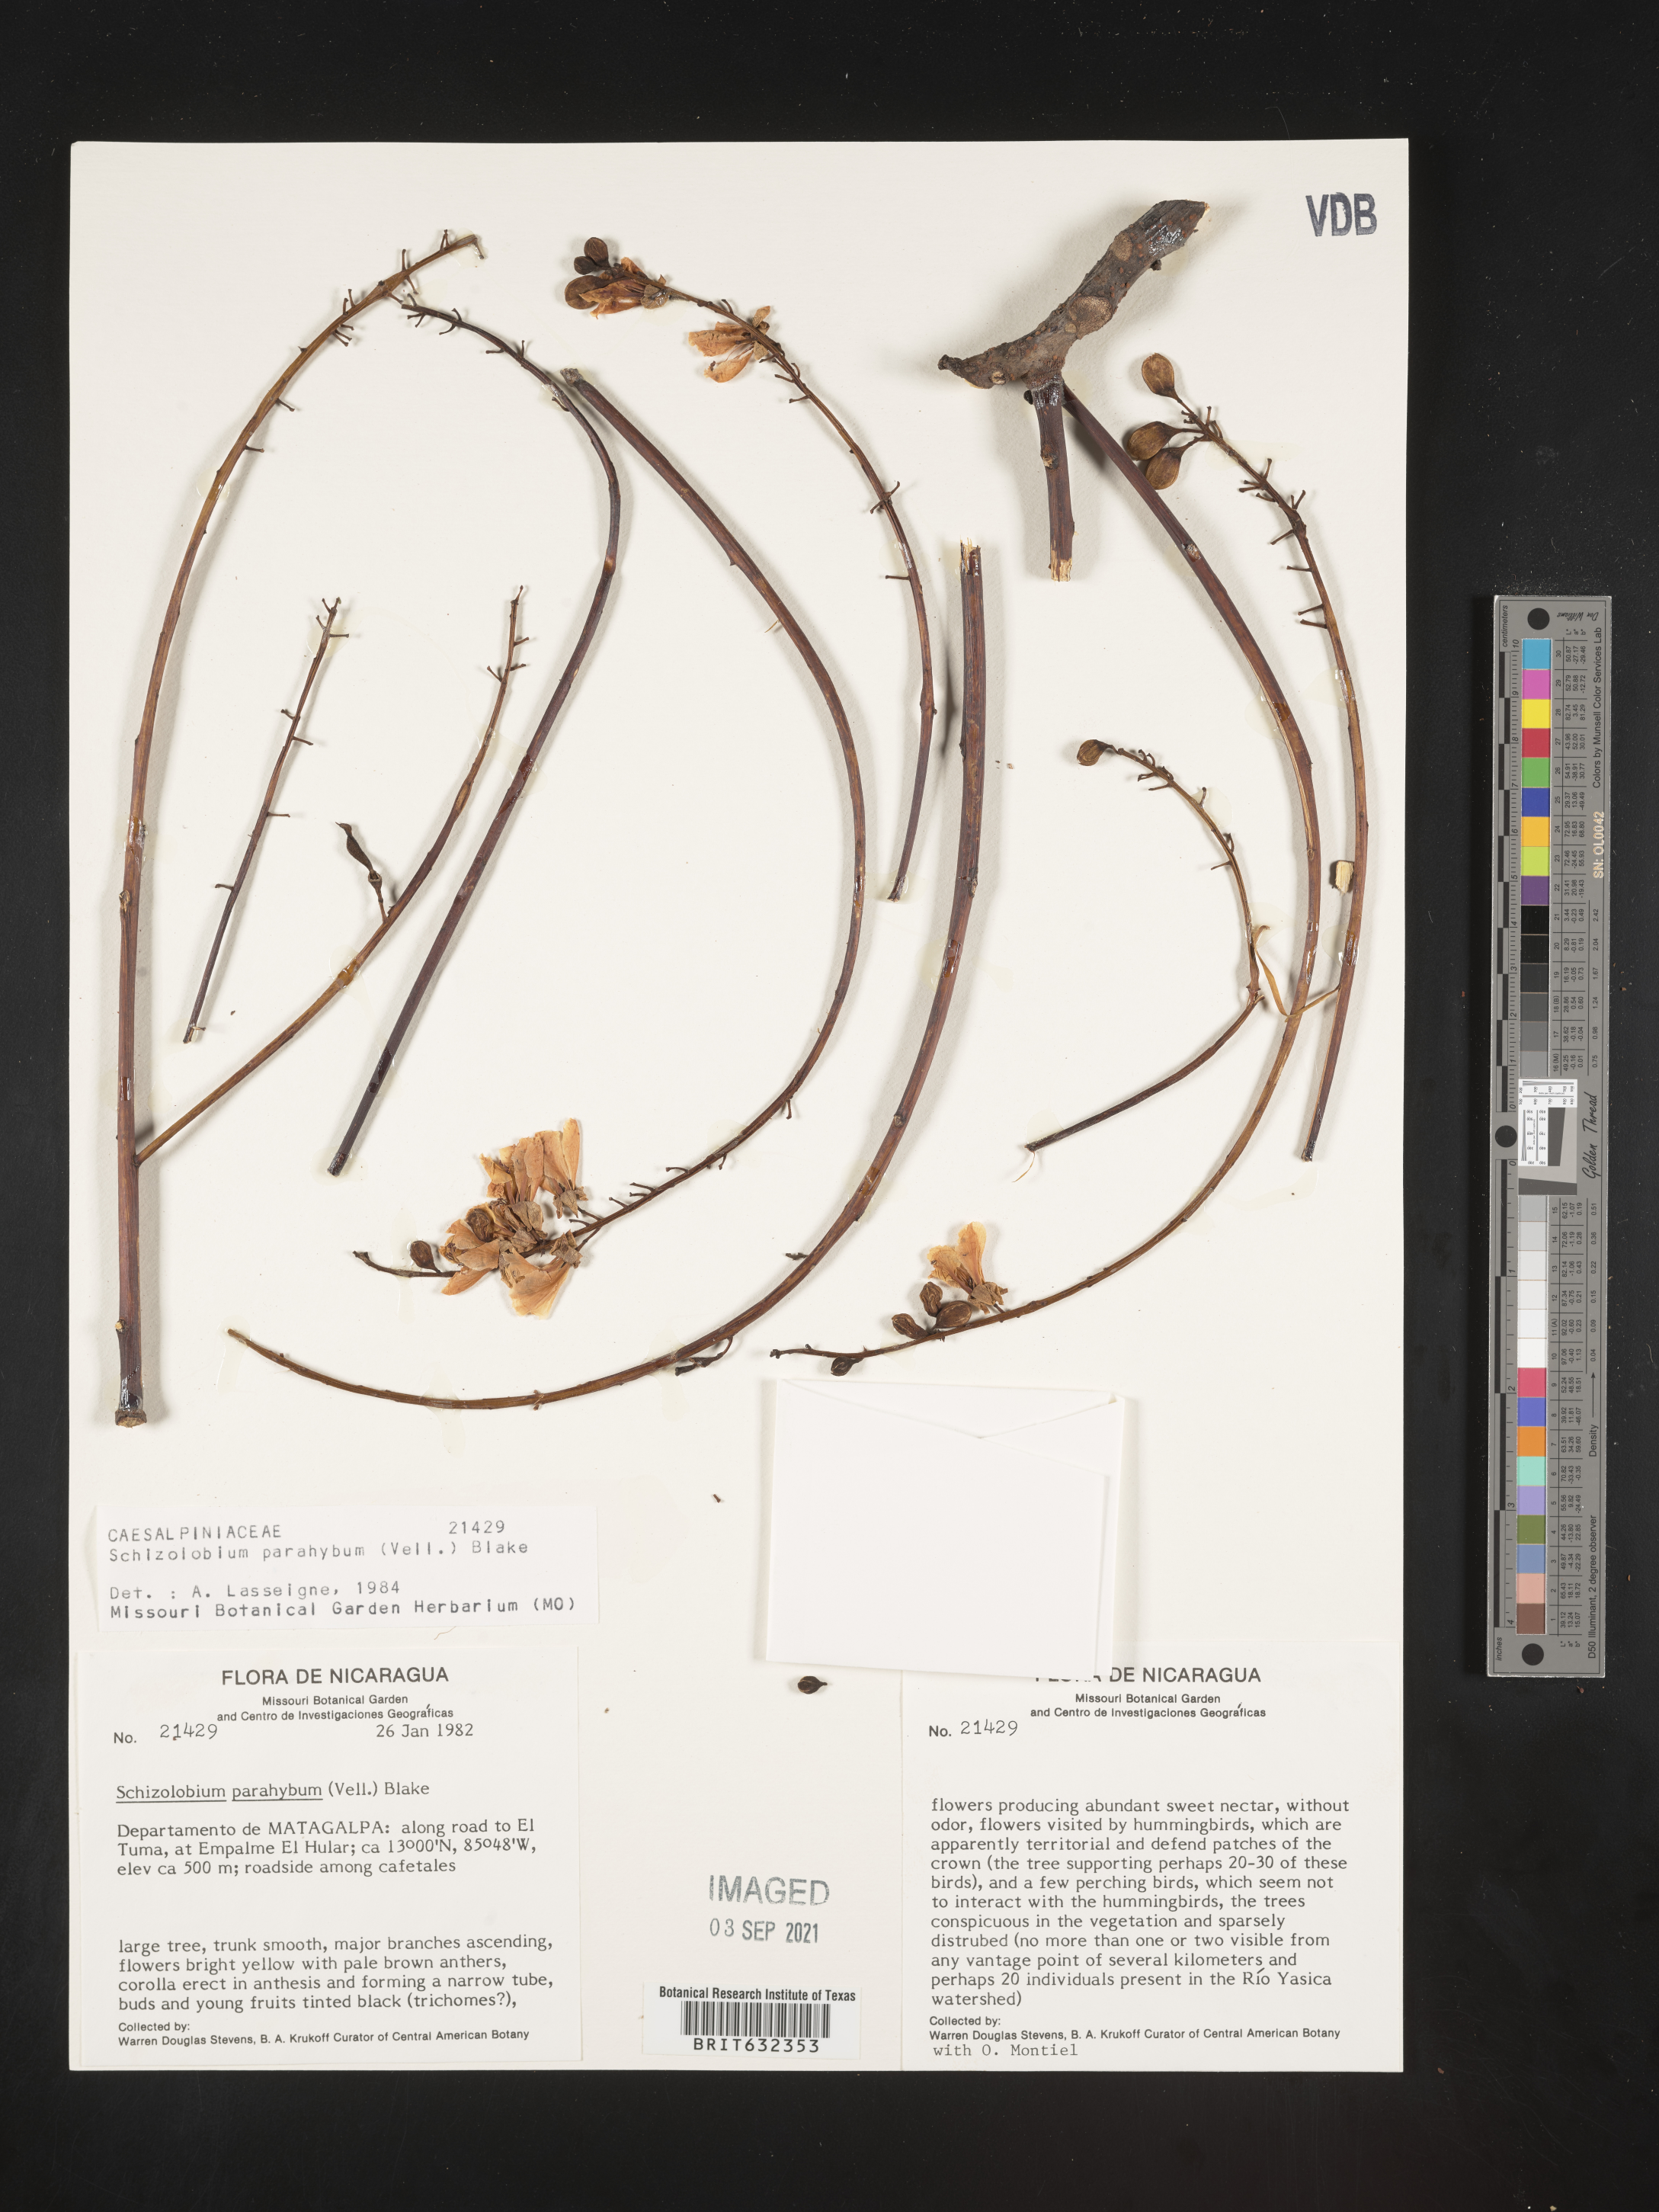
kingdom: Plantae
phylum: Tracheophyta
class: Magnoliopsida
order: Fabales
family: Fabaceae
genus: Schizolobium
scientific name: Schizolobium
